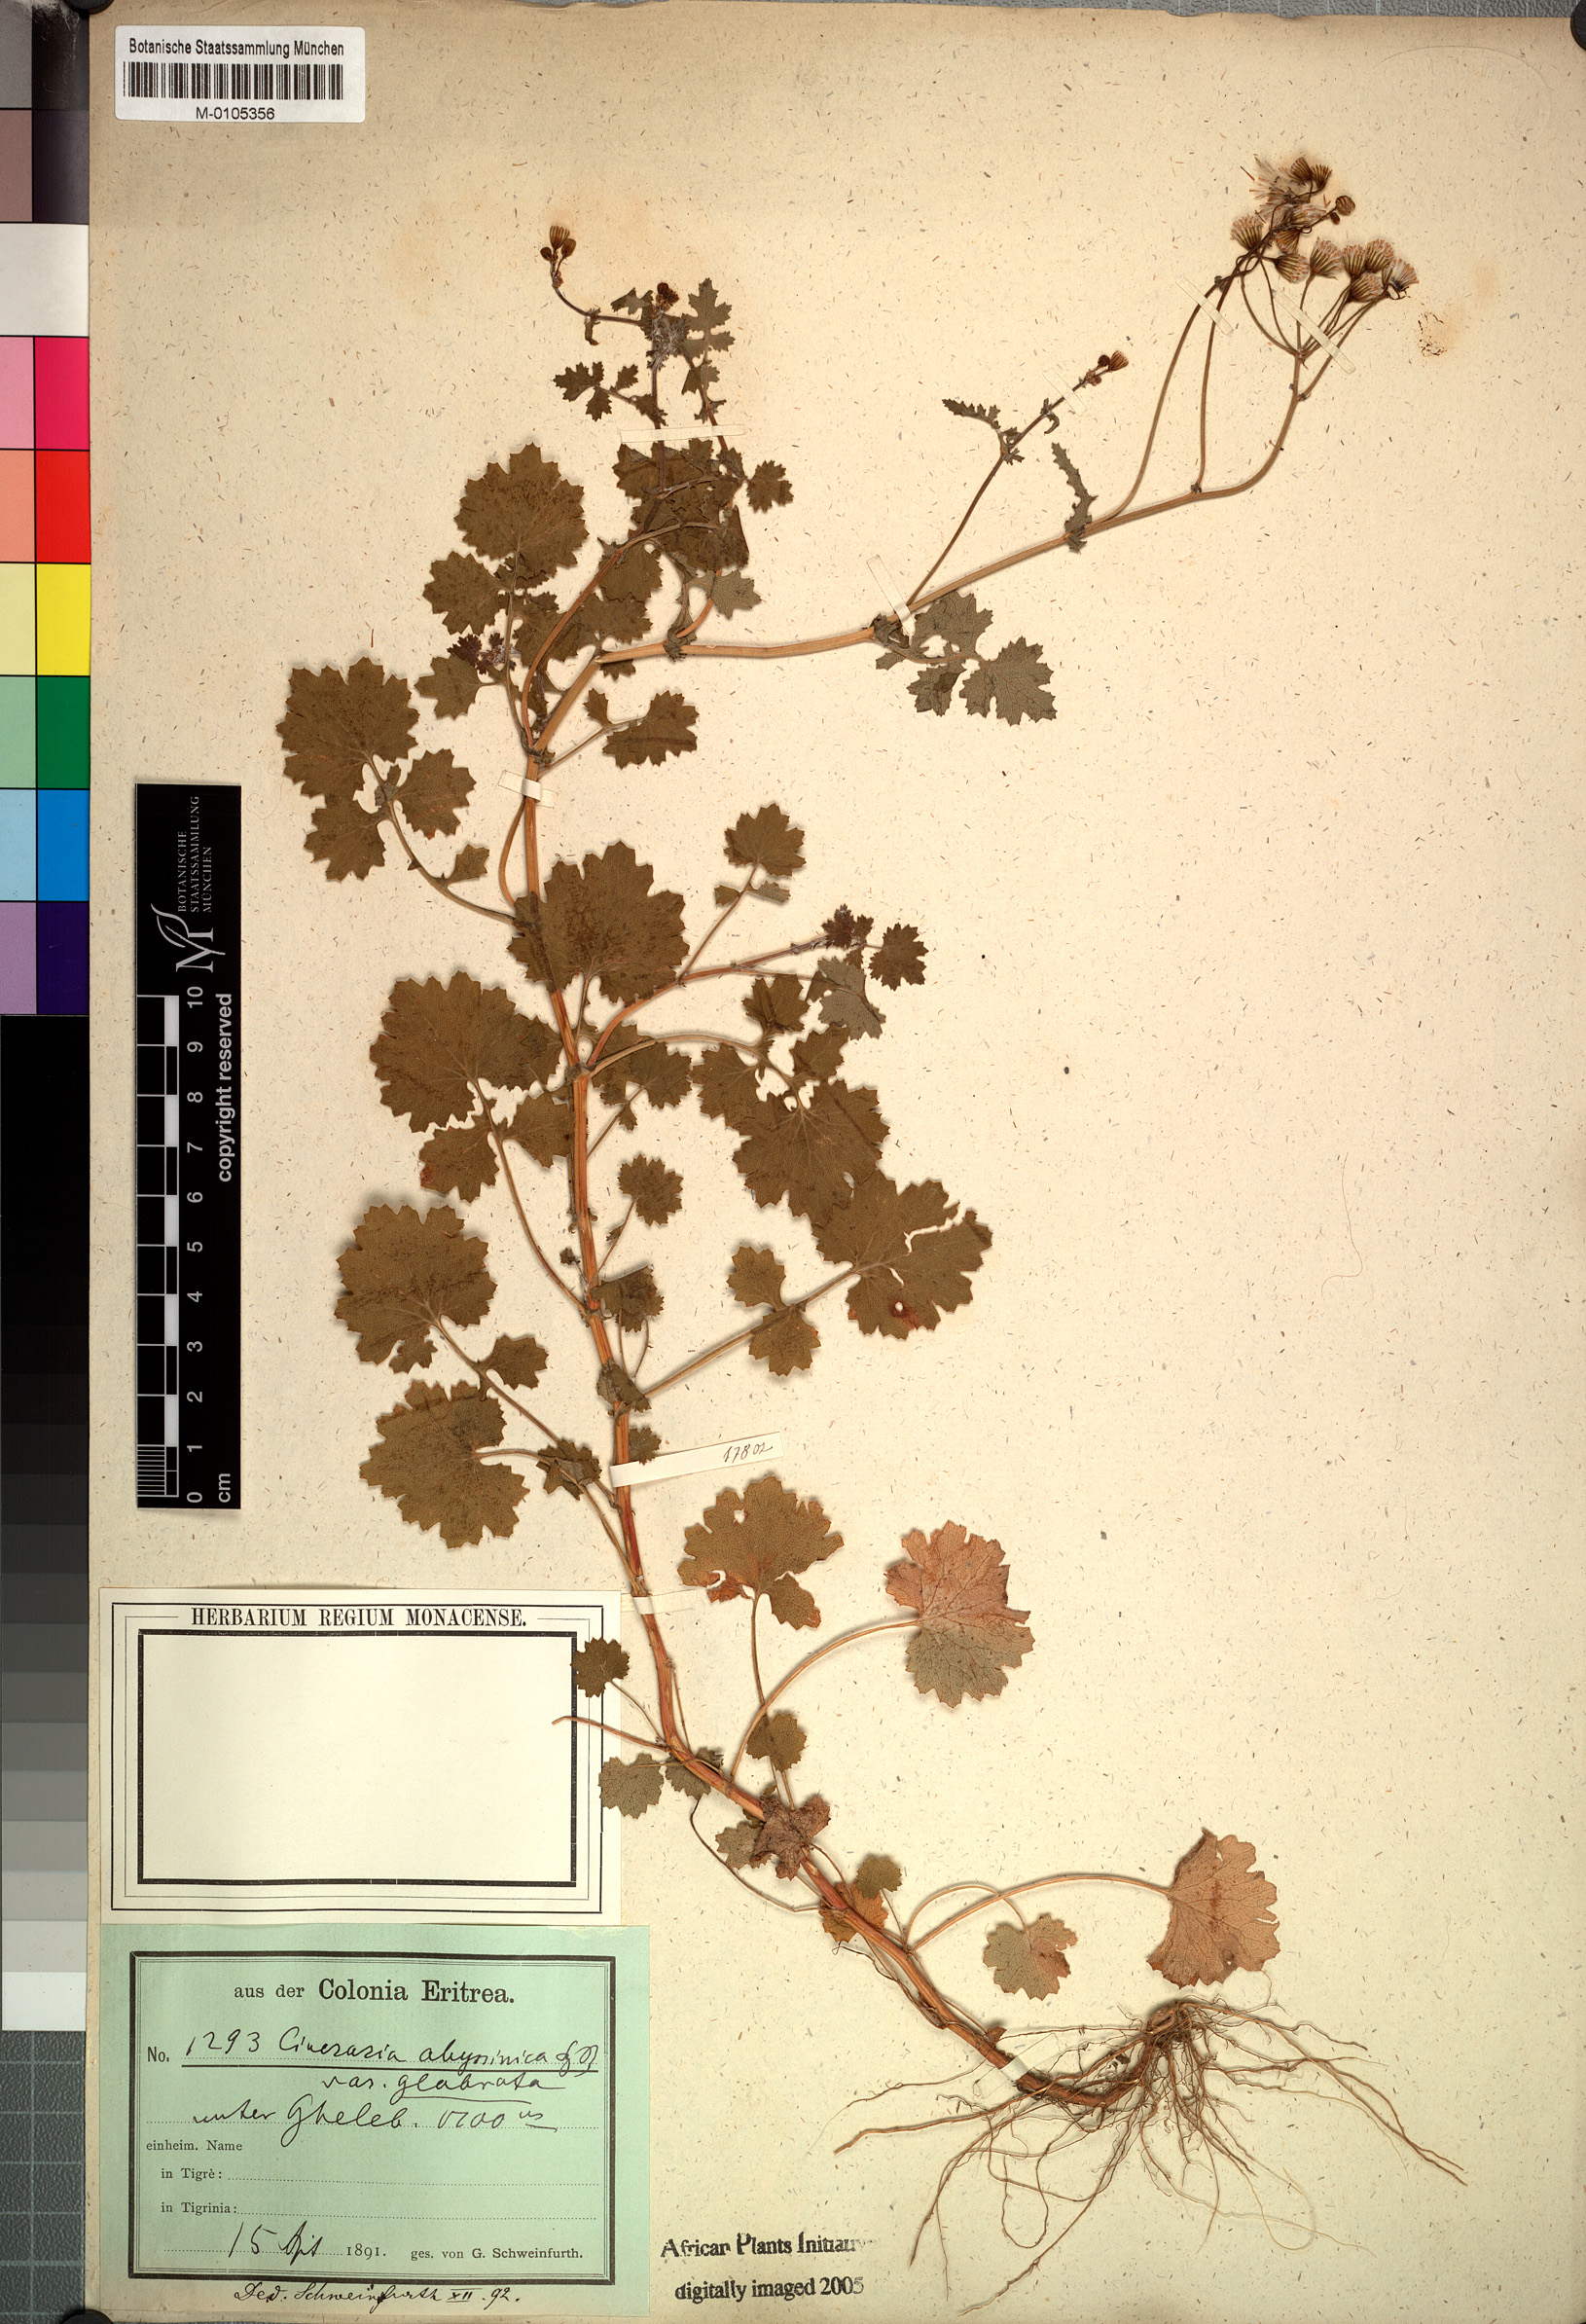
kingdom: Plantae
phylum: Tracheophyta
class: Magnoliopsida
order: Asterales
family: Asteraceae
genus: Cineraria
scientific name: Cineraria abyssinica
